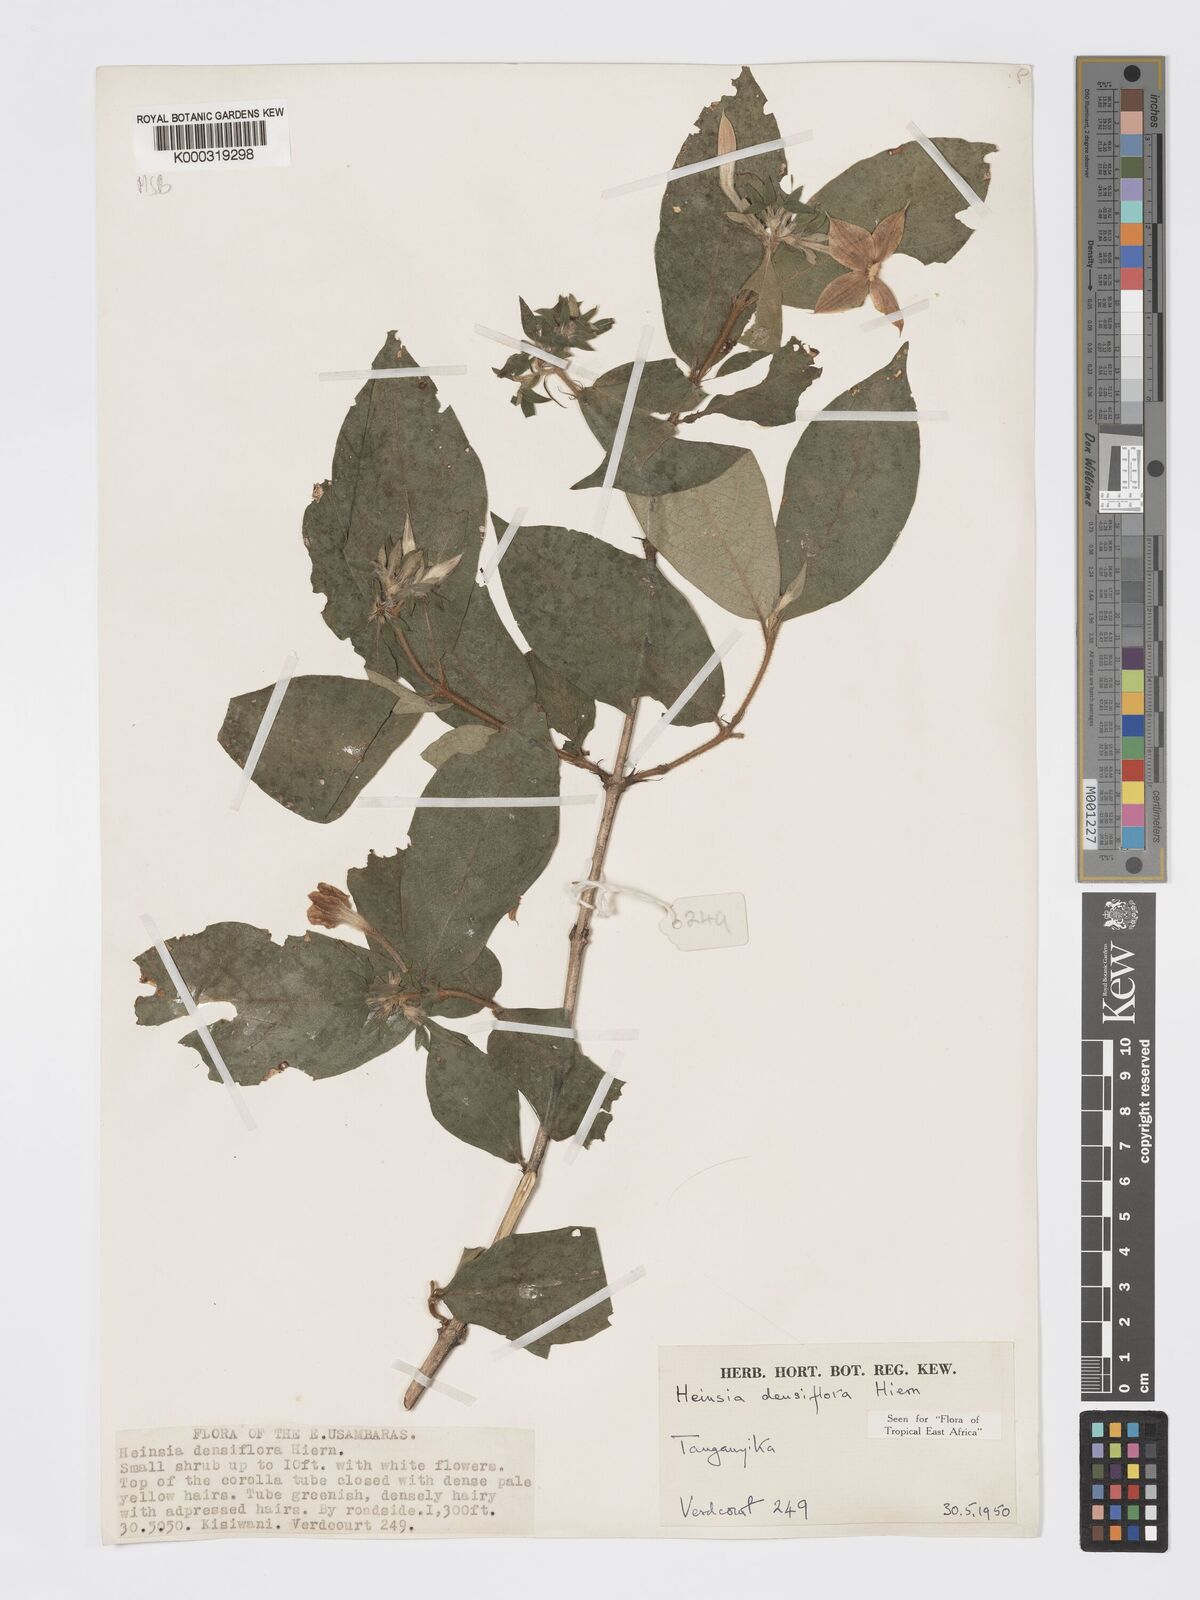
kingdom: Plantae
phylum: Tracheophyta
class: Magnoliopsida
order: Gentianales
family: Rubiaceae
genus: Heinsia
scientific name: Heinsia zanzibarica
